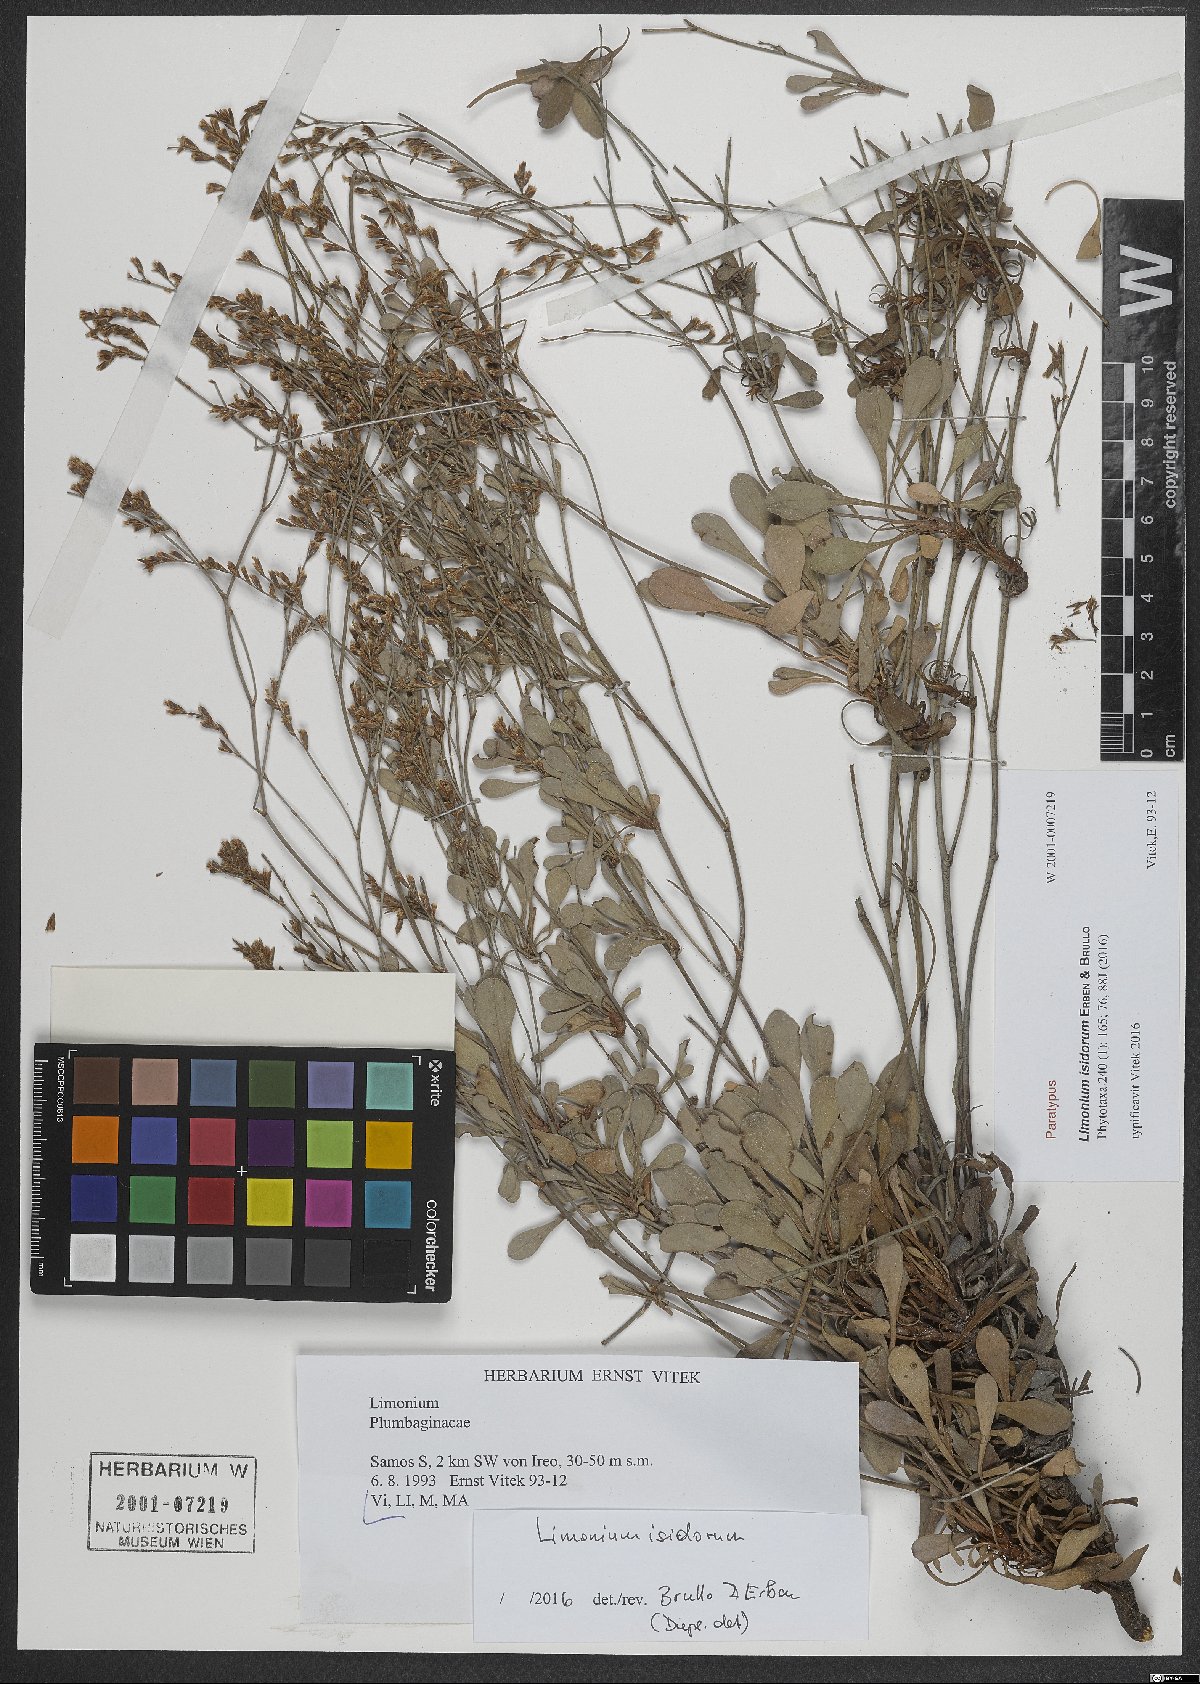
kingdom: Plantae
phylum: Tracheophyta
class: Magnoliopsida
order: Caryophyllales
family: Plumbaginaceae
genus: Limonium
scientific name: Limonium isidorum
